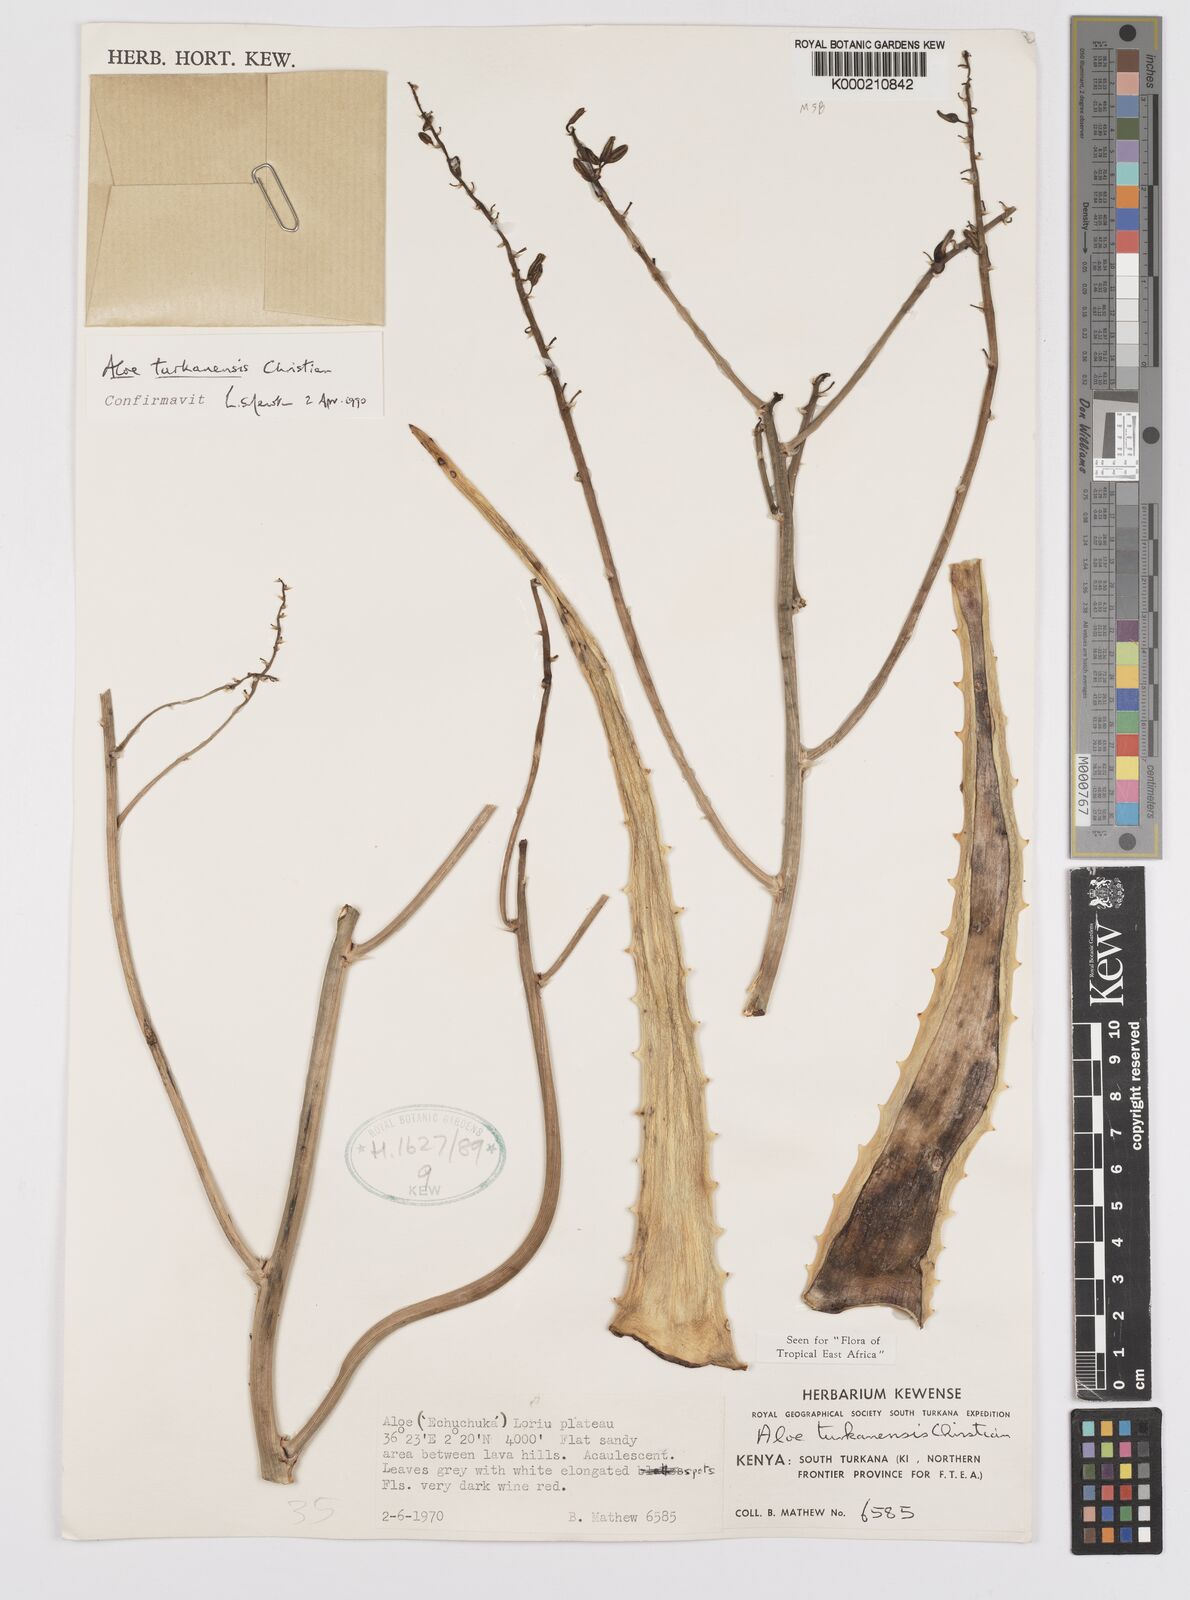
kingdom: Plantae
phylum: Tracheophyta
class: Liliopsida
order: Asparagales
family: Asphodelaceae
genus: Aloe
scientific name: Aloe turkanensis
